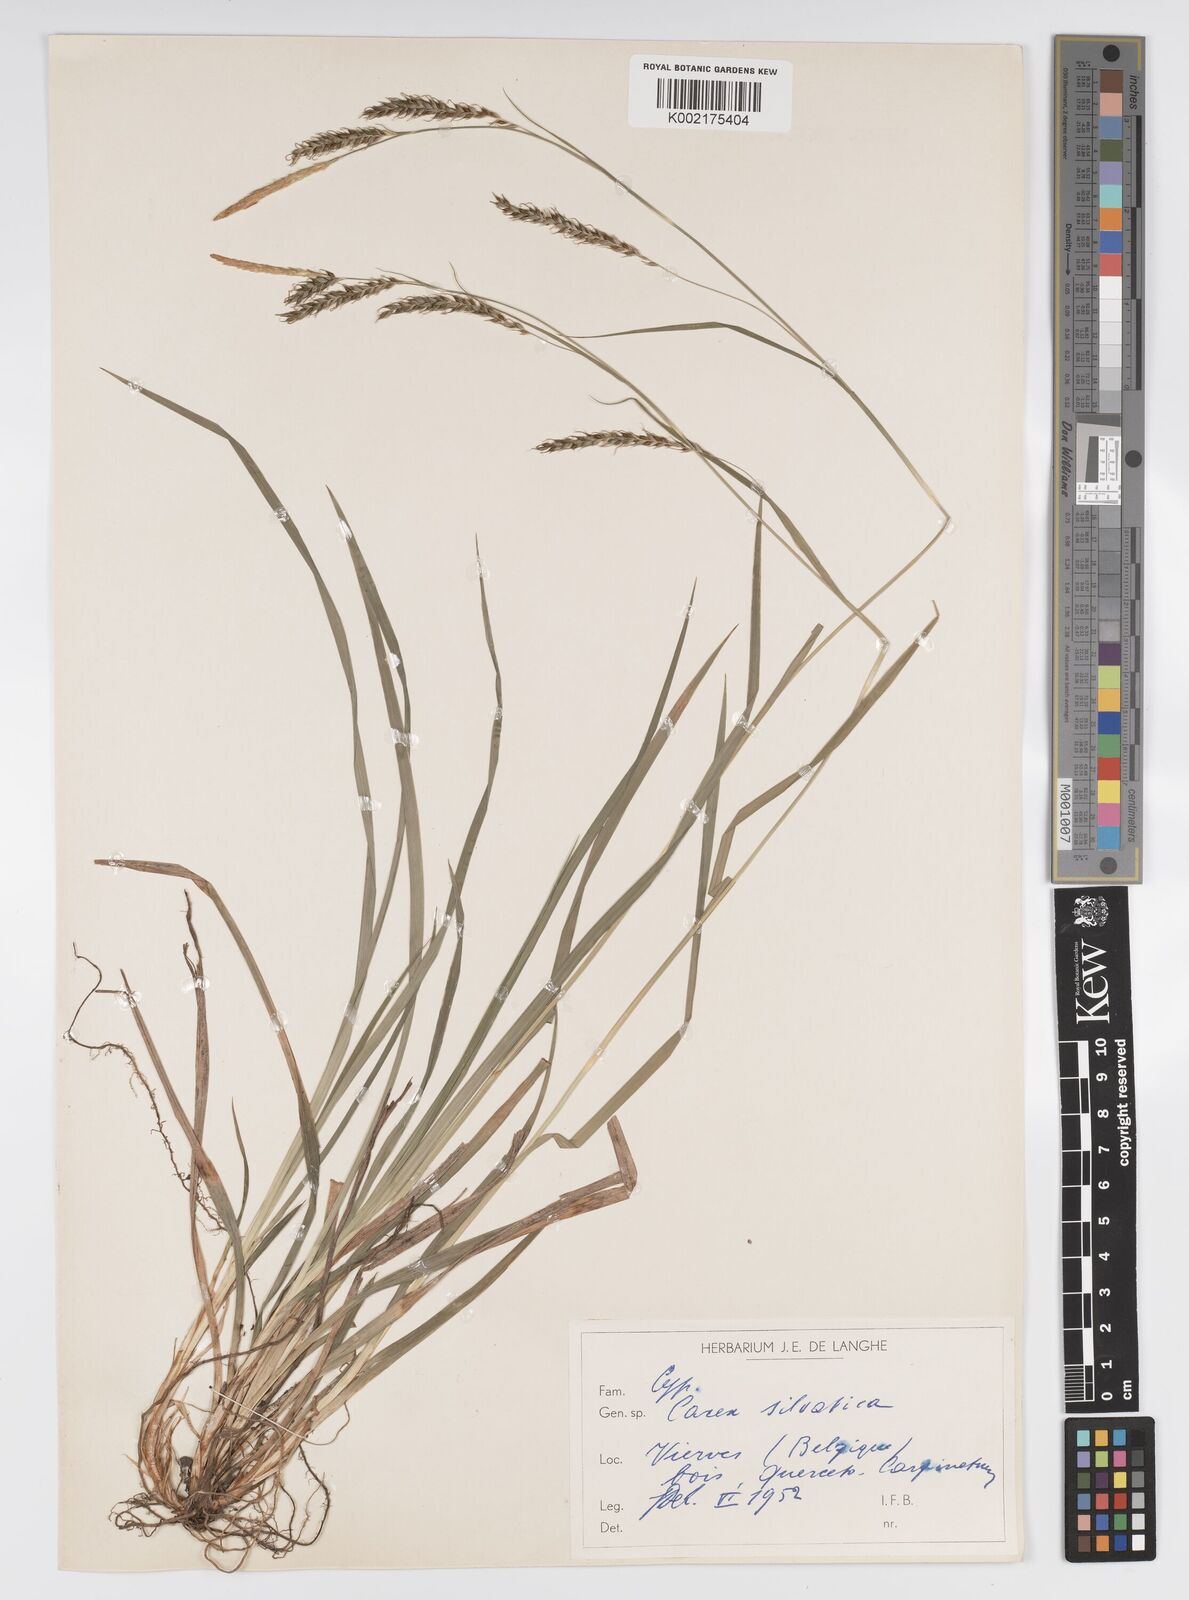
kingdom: Plantae
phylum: Tracheophyta
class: Liliopsida
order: Poales
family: Cyperaceae
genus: Carex
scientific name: Carex sylvatica
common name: Wood-sedge
